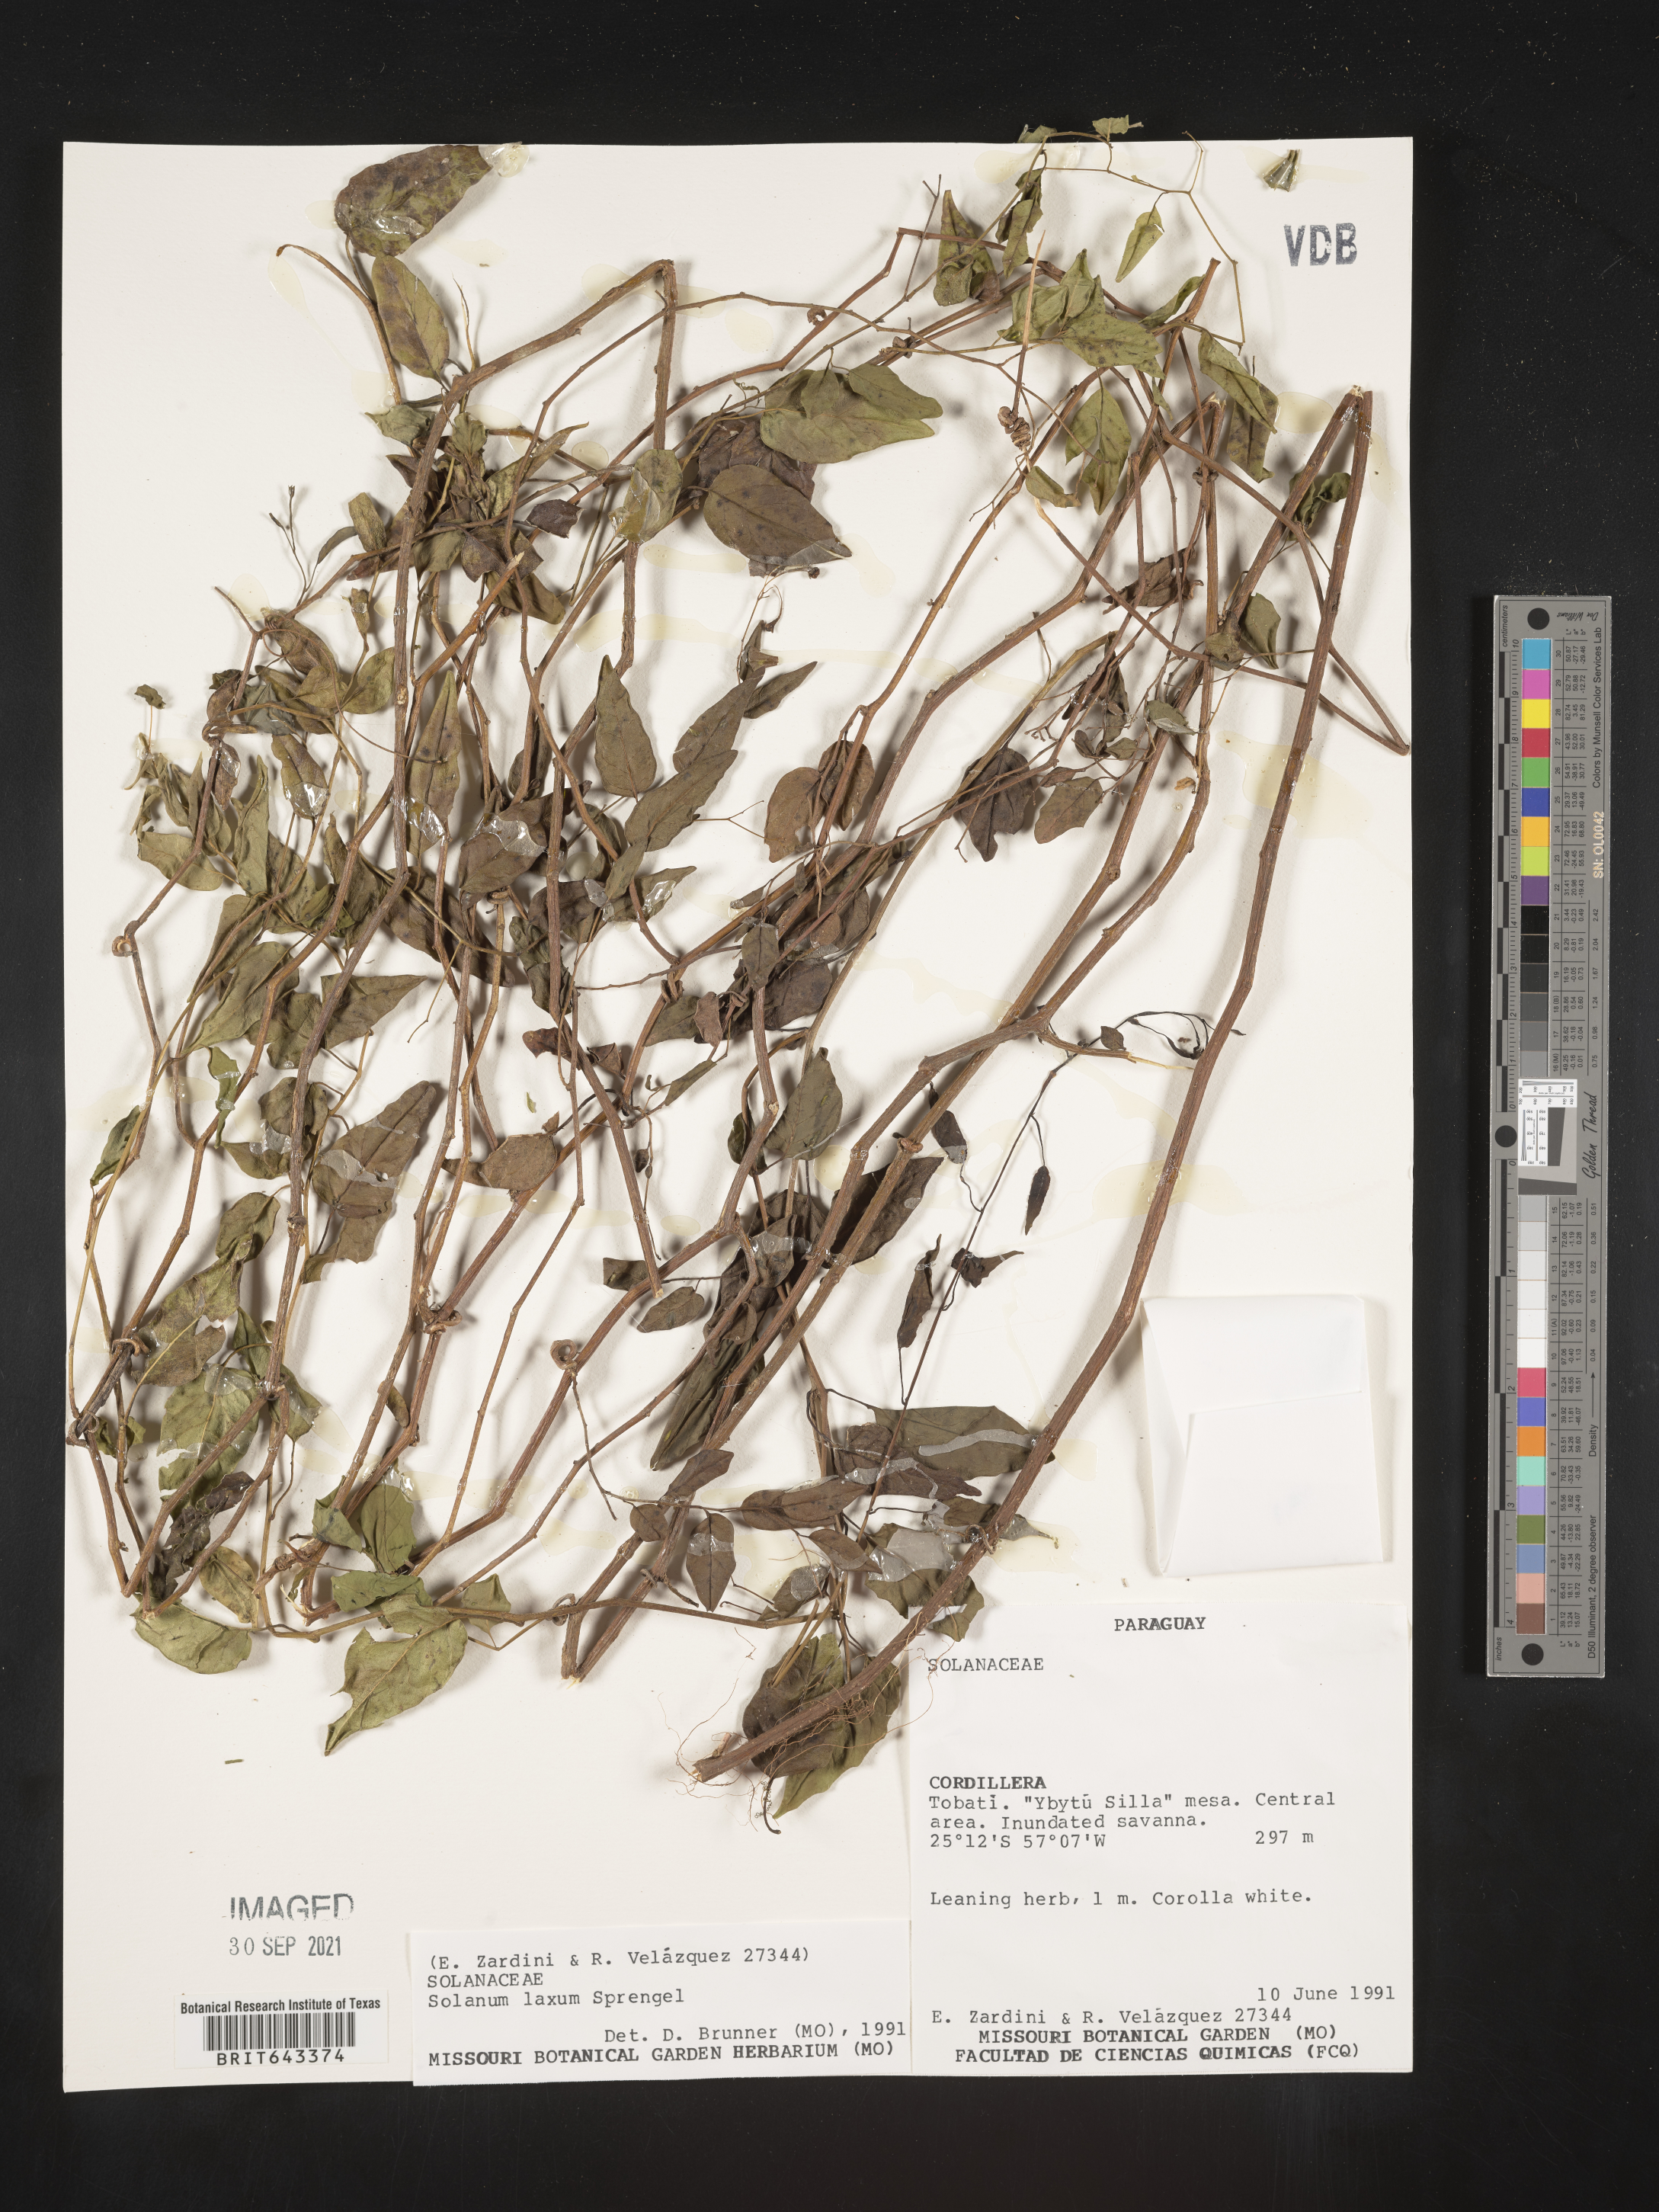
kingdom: Plantae
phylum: Tracheophyta
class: Magnoliopsida
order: Solanales
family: Solanaceae
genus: Solanum
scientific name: Solanum
